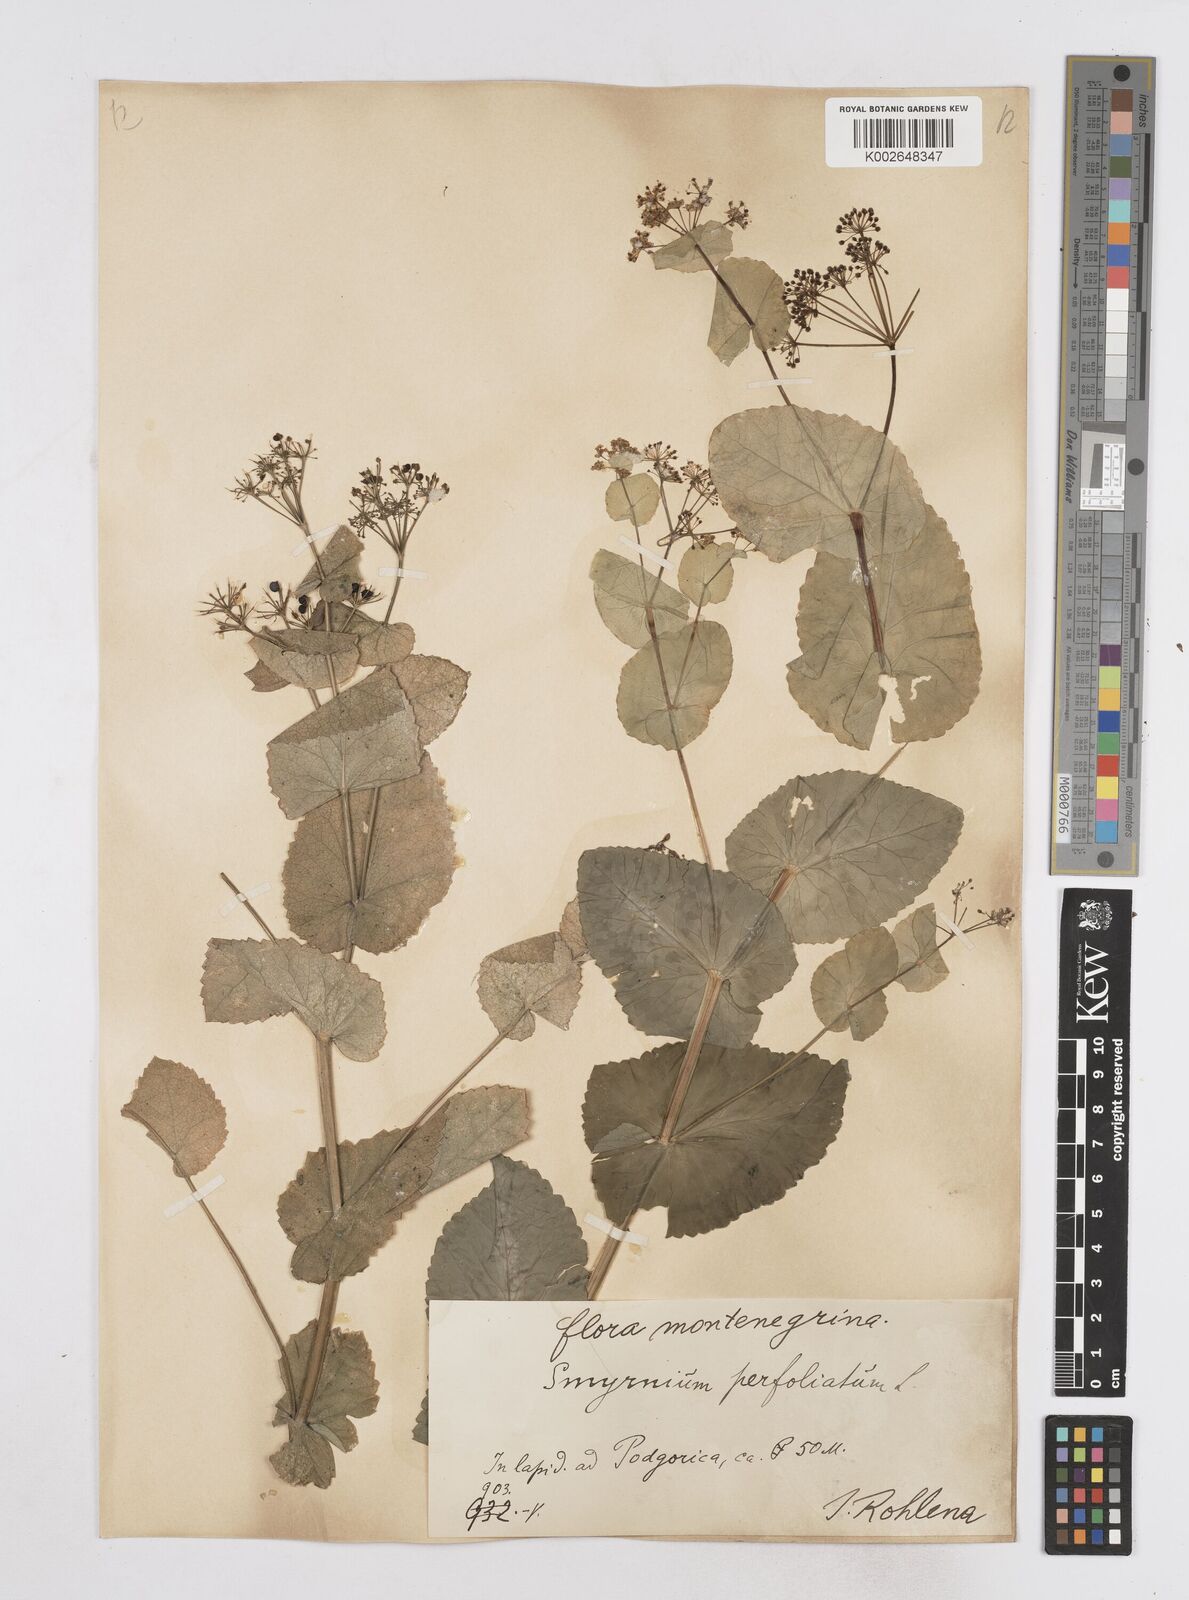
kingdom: Plantae
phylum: Tracheophyta
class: Magnoliopsida
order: Apiales
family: Apiaceae
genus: Smyrnium
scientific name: Smyrnium perfoliatum
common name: Perfoliate alexanders
